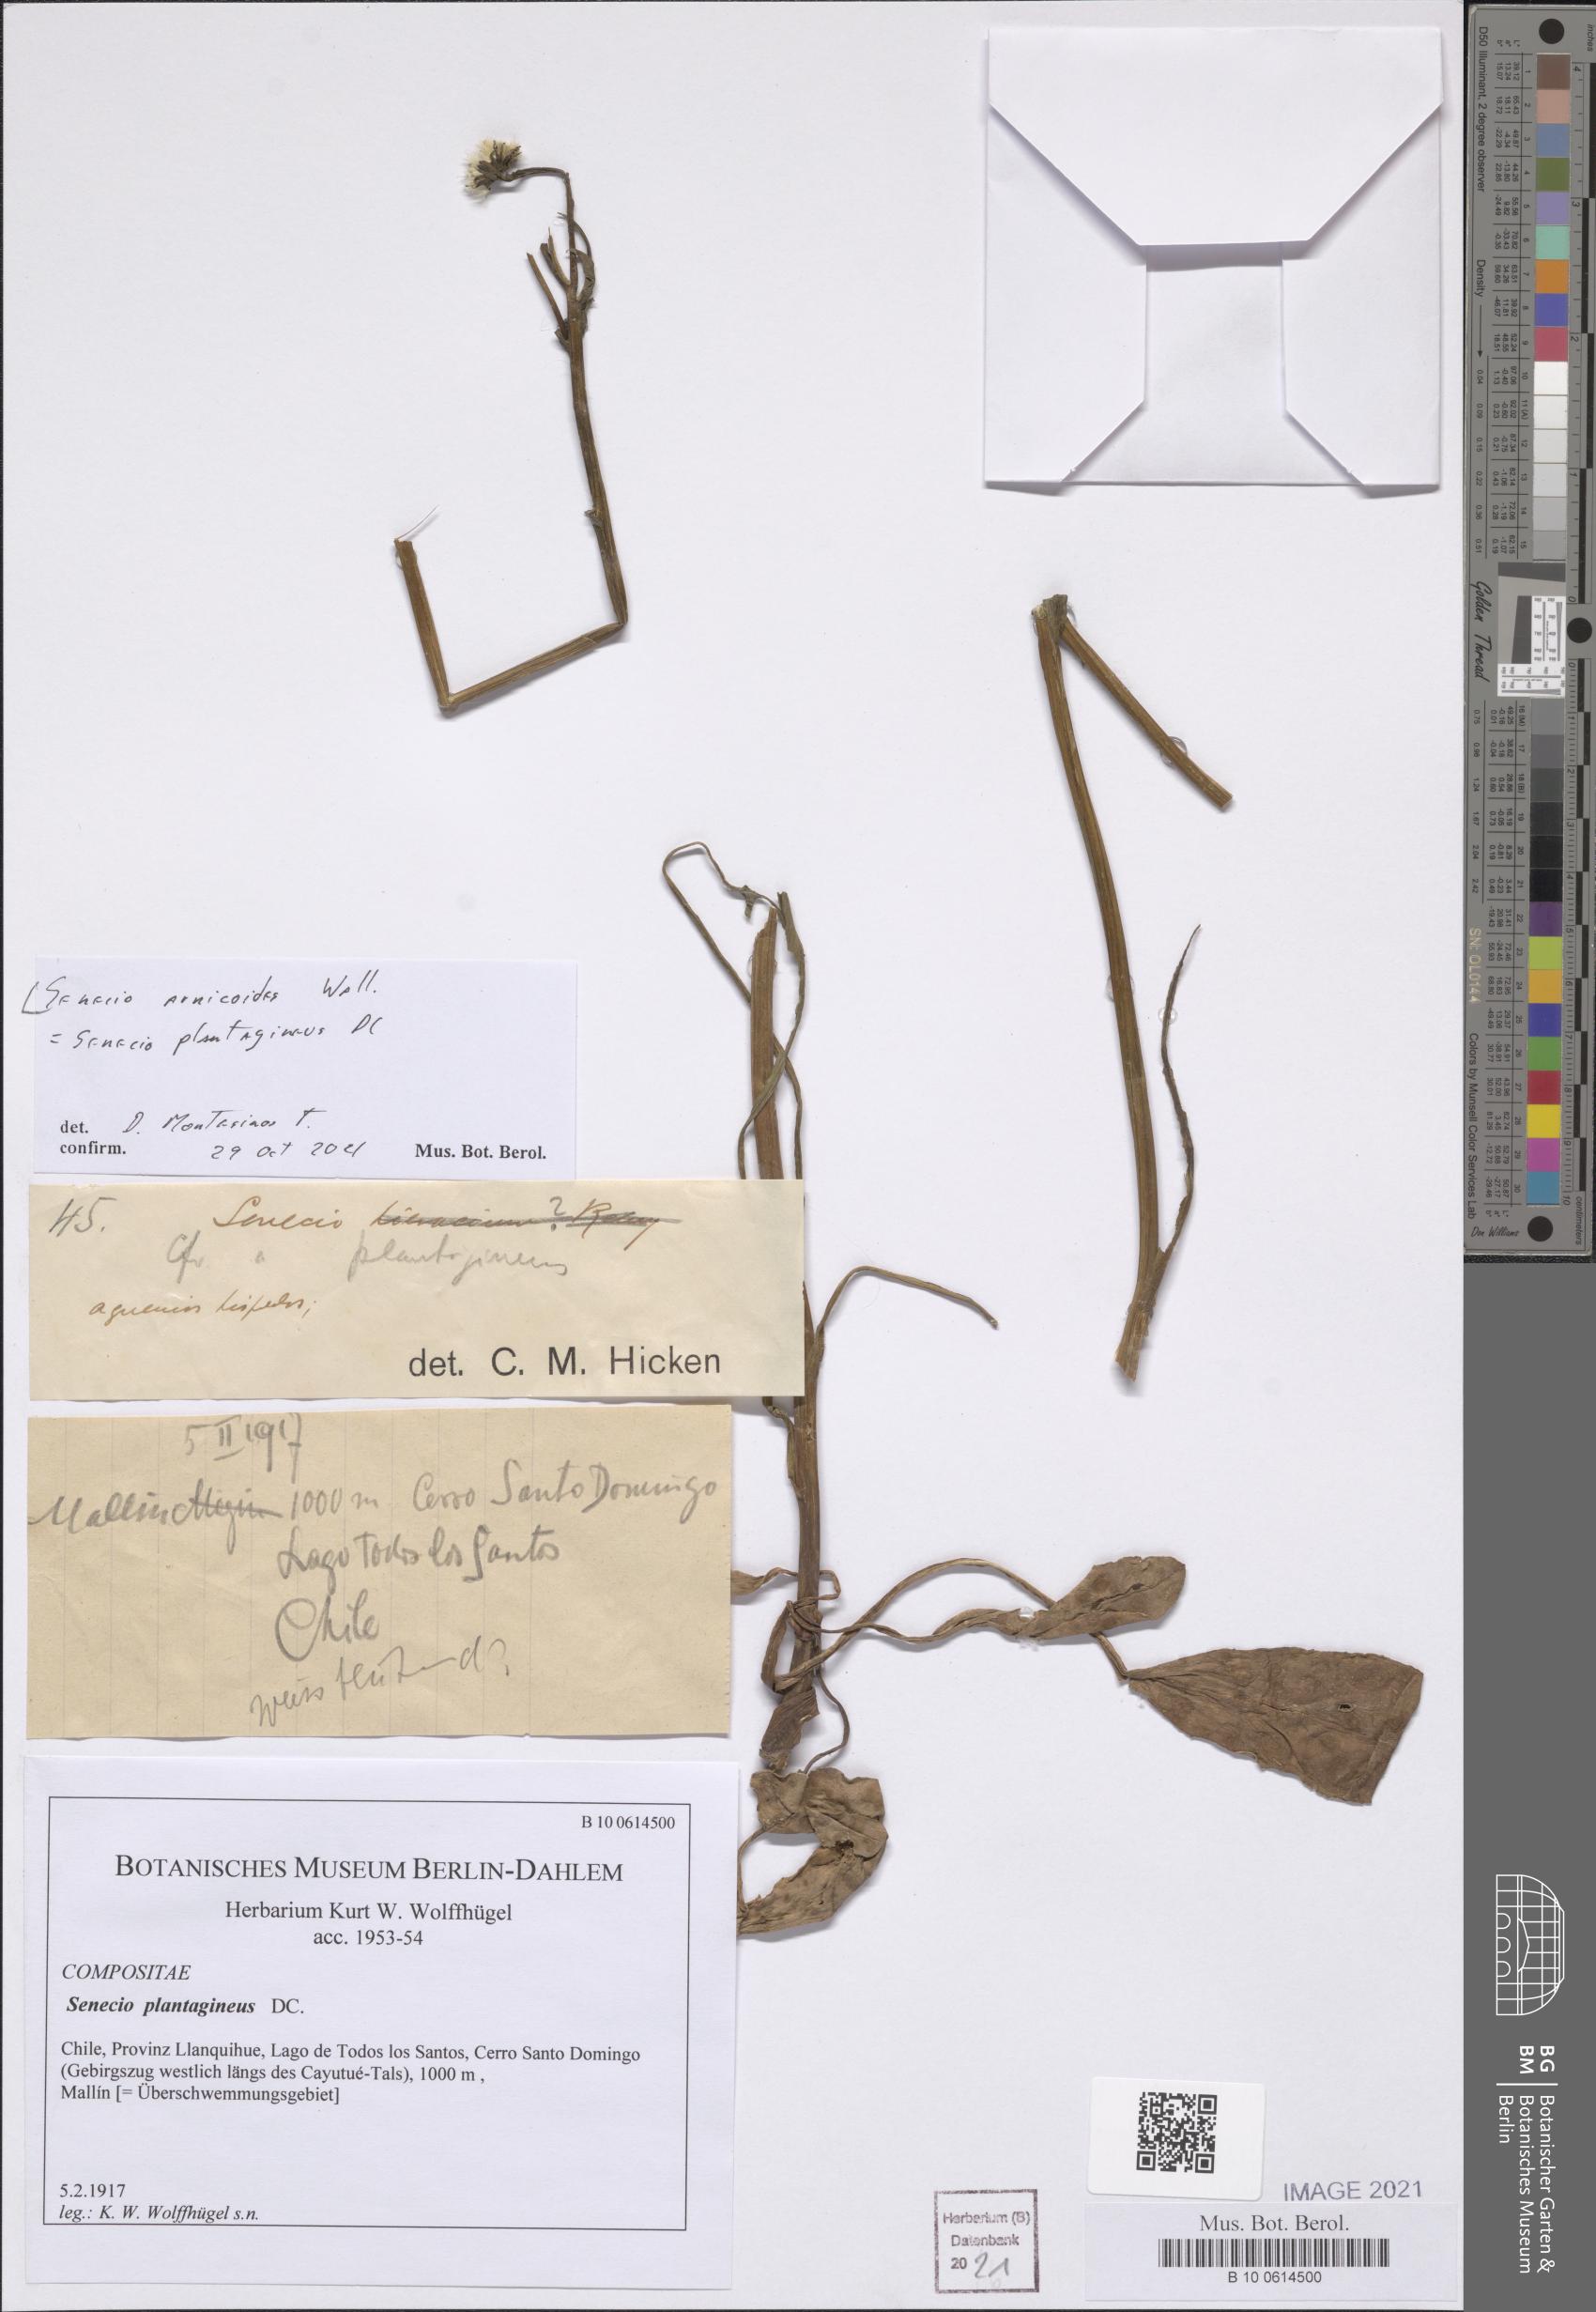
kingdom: Plantae
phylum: Tracheophyta
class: Magnoliopsida
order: Asterales
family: Asteraceae
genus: Senecio
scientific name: Senecio arnicoides
